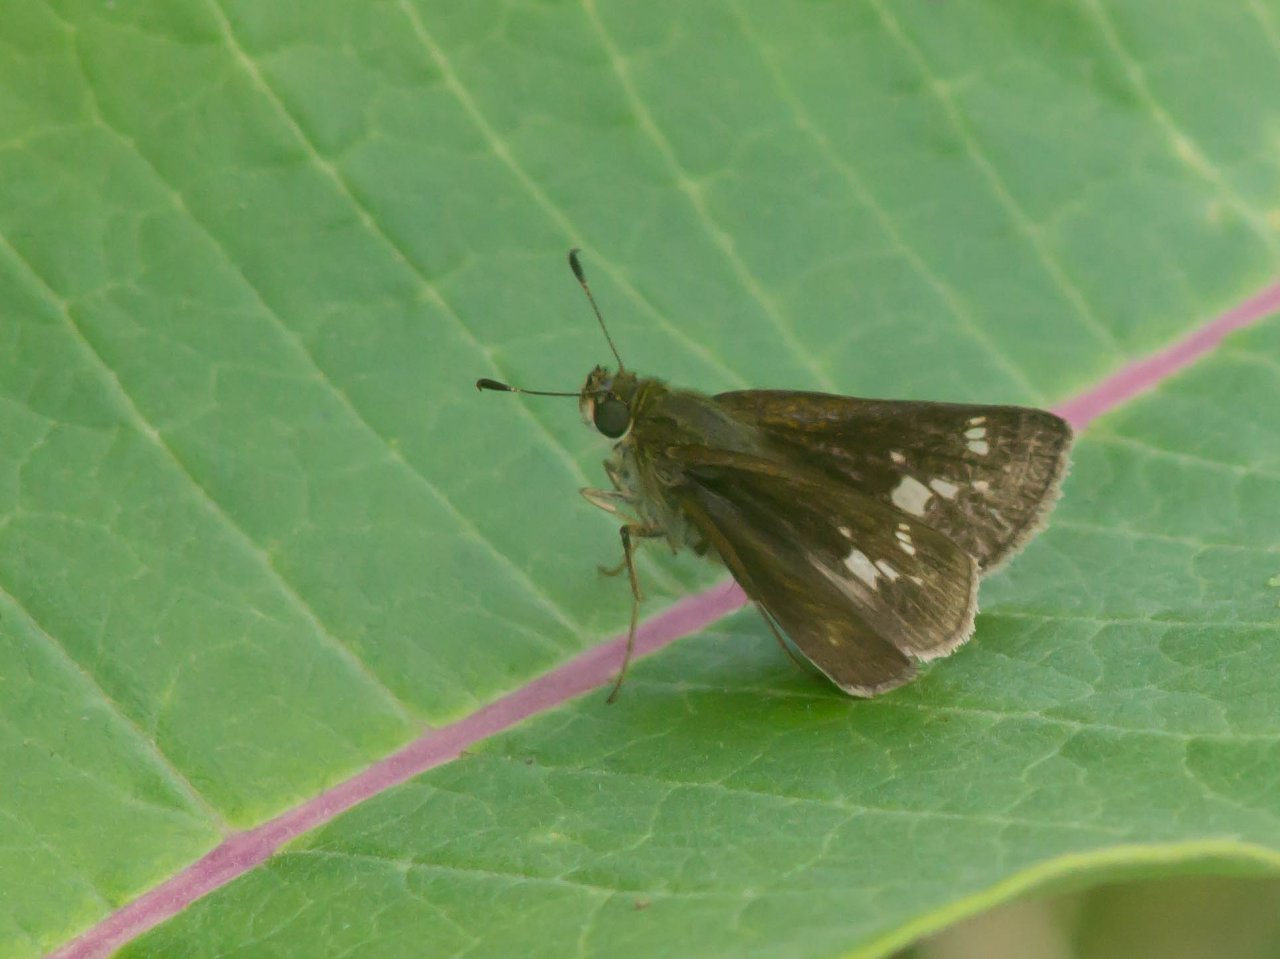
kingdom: Animalia
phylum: Arthropoda
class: Insecta
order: Lepidoptera
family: Hesperiidae
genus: Vernia
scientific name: Vernia verna
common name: Little Glassywing
